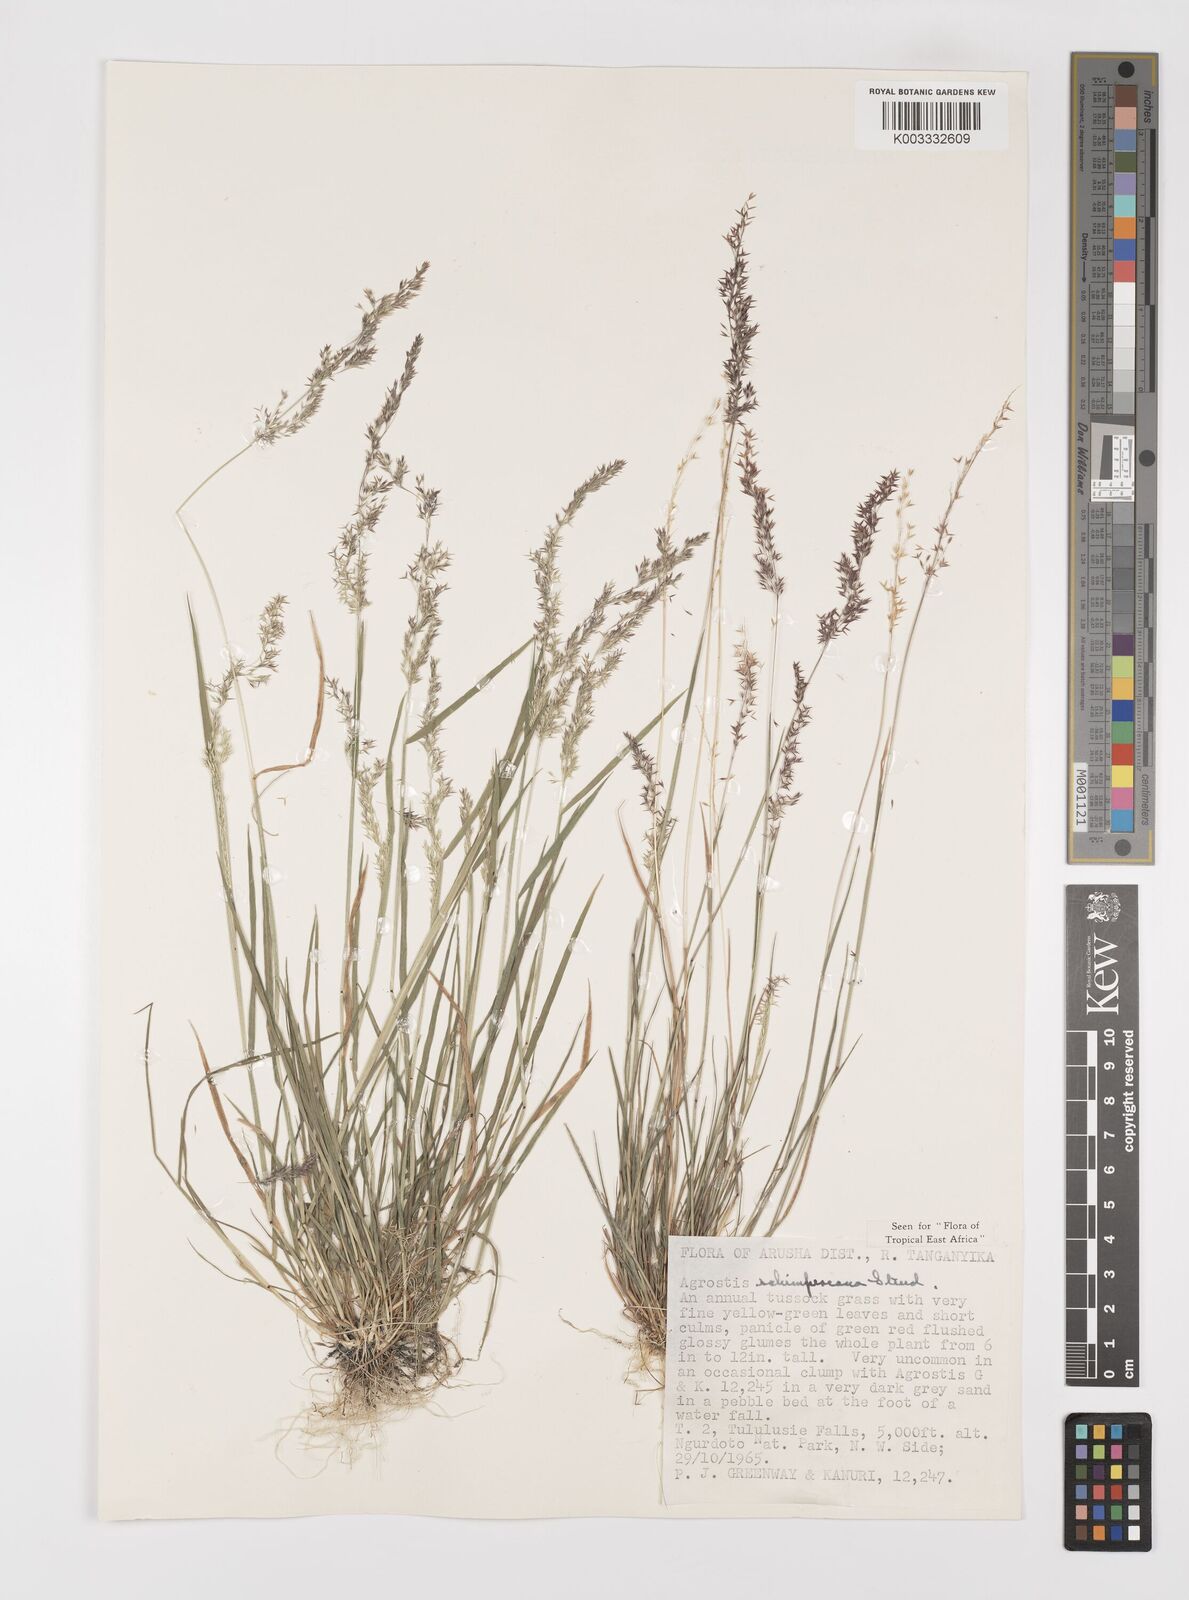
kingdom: Plantae
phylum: Tracheophyta
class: Liliopsida
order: Poales
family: Poaceae
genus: Polypogon
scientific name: Polypogon schimperianus
